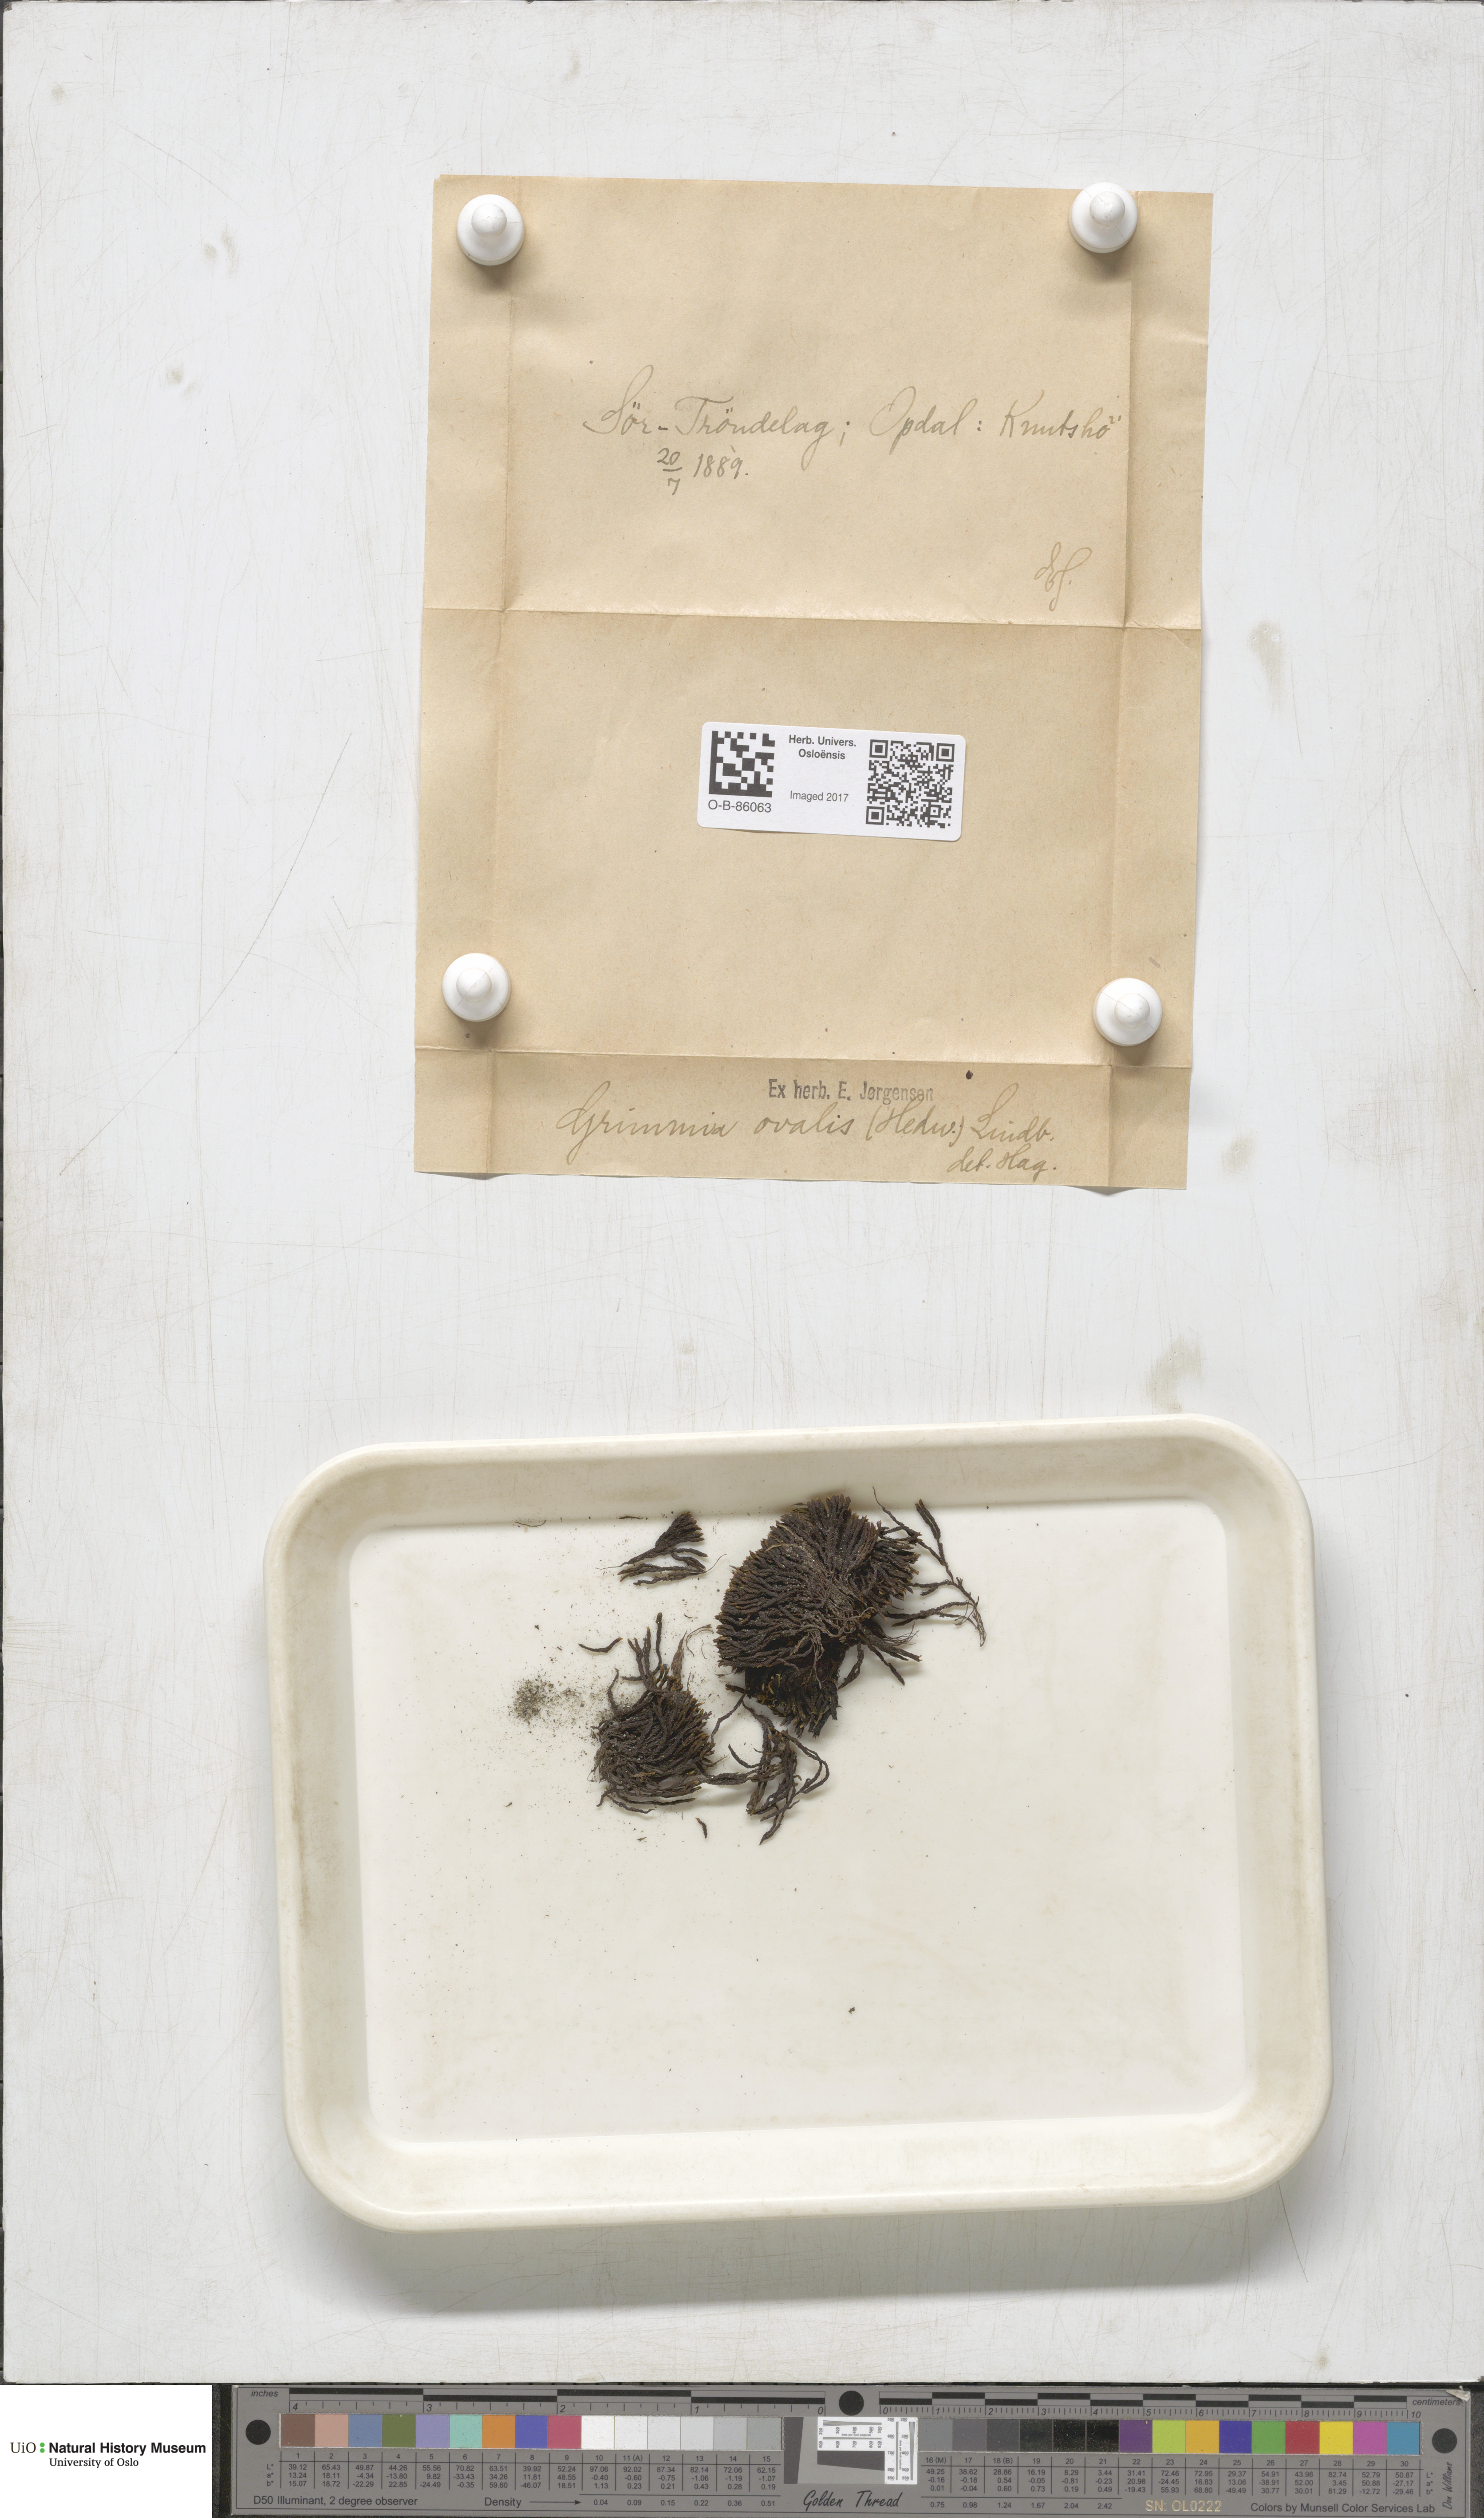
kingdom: Plantae
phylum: Bryophyta
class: Bryopsida
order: Grimmiales
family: Grimmiaceae
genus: Grimmia
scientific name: Grimmia ovalis
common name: Oval grimmia
